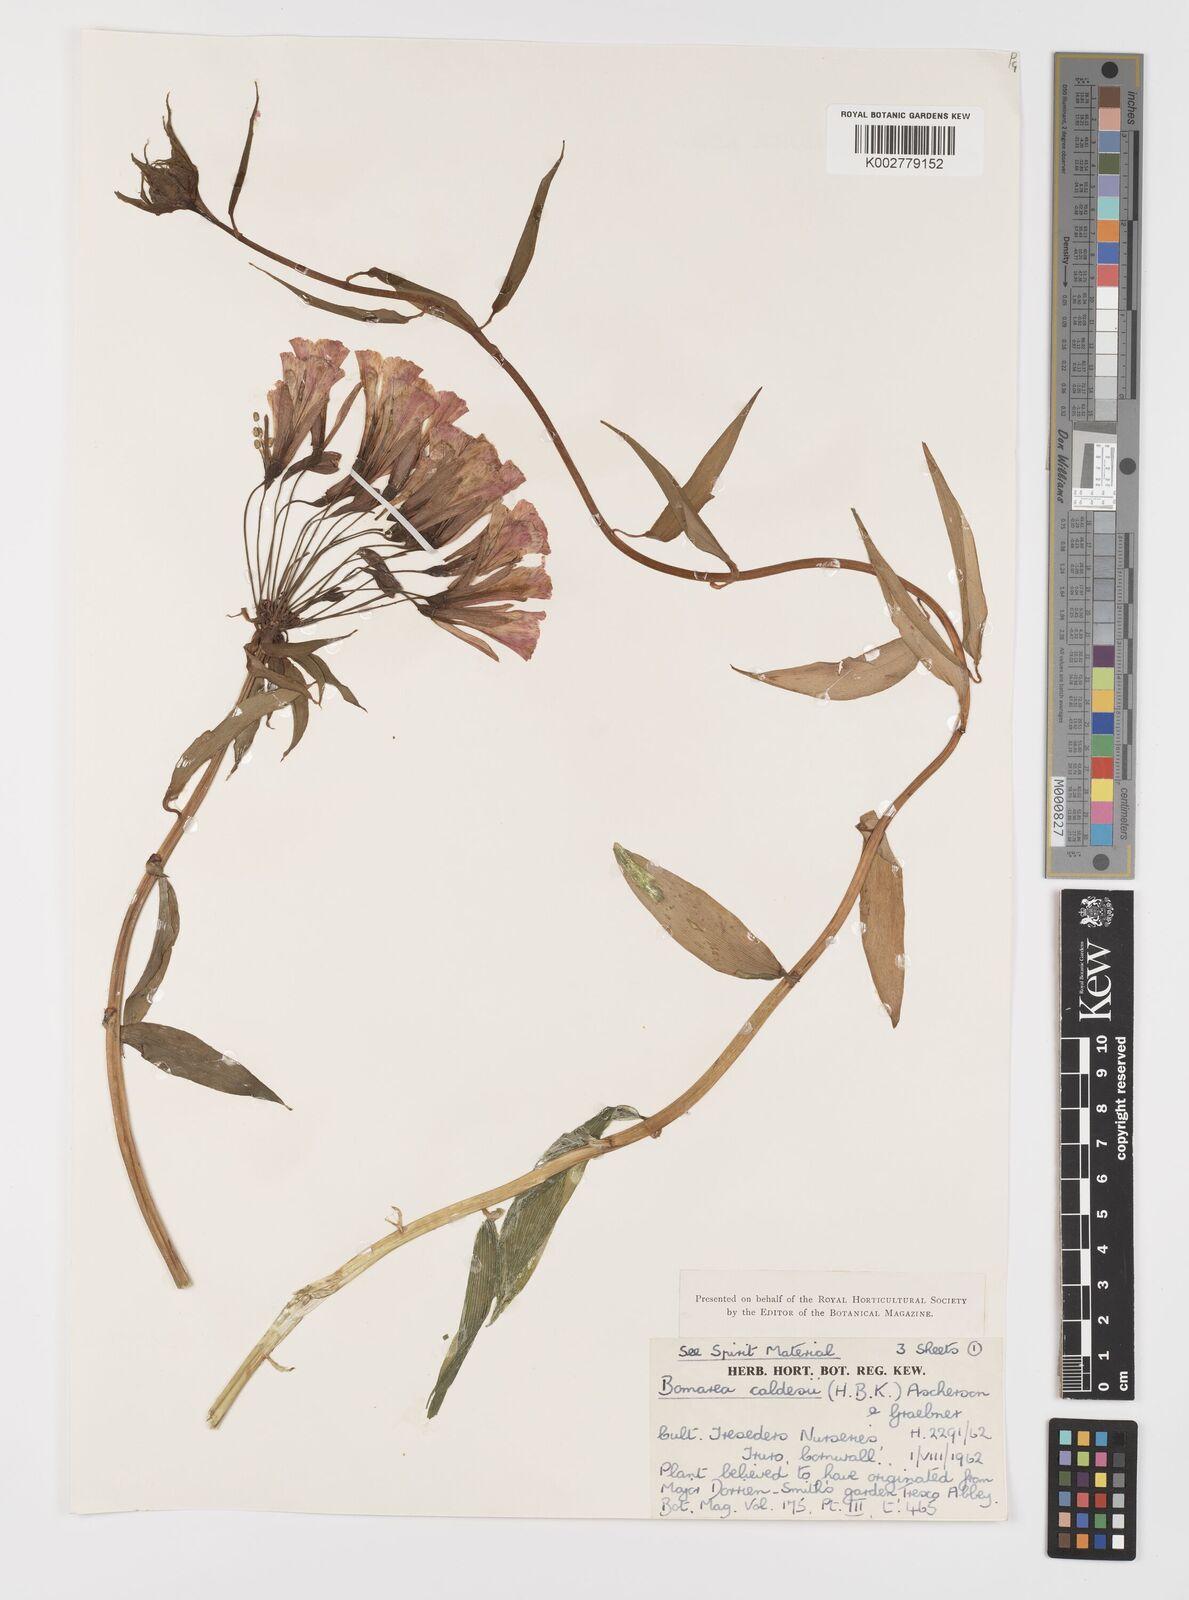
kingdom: Plantae
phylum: Tracheophyta
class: Liliopsida
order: Liliales
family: Alstroemeriaceae
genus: Bomarea
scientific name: Bomarea multiflora
